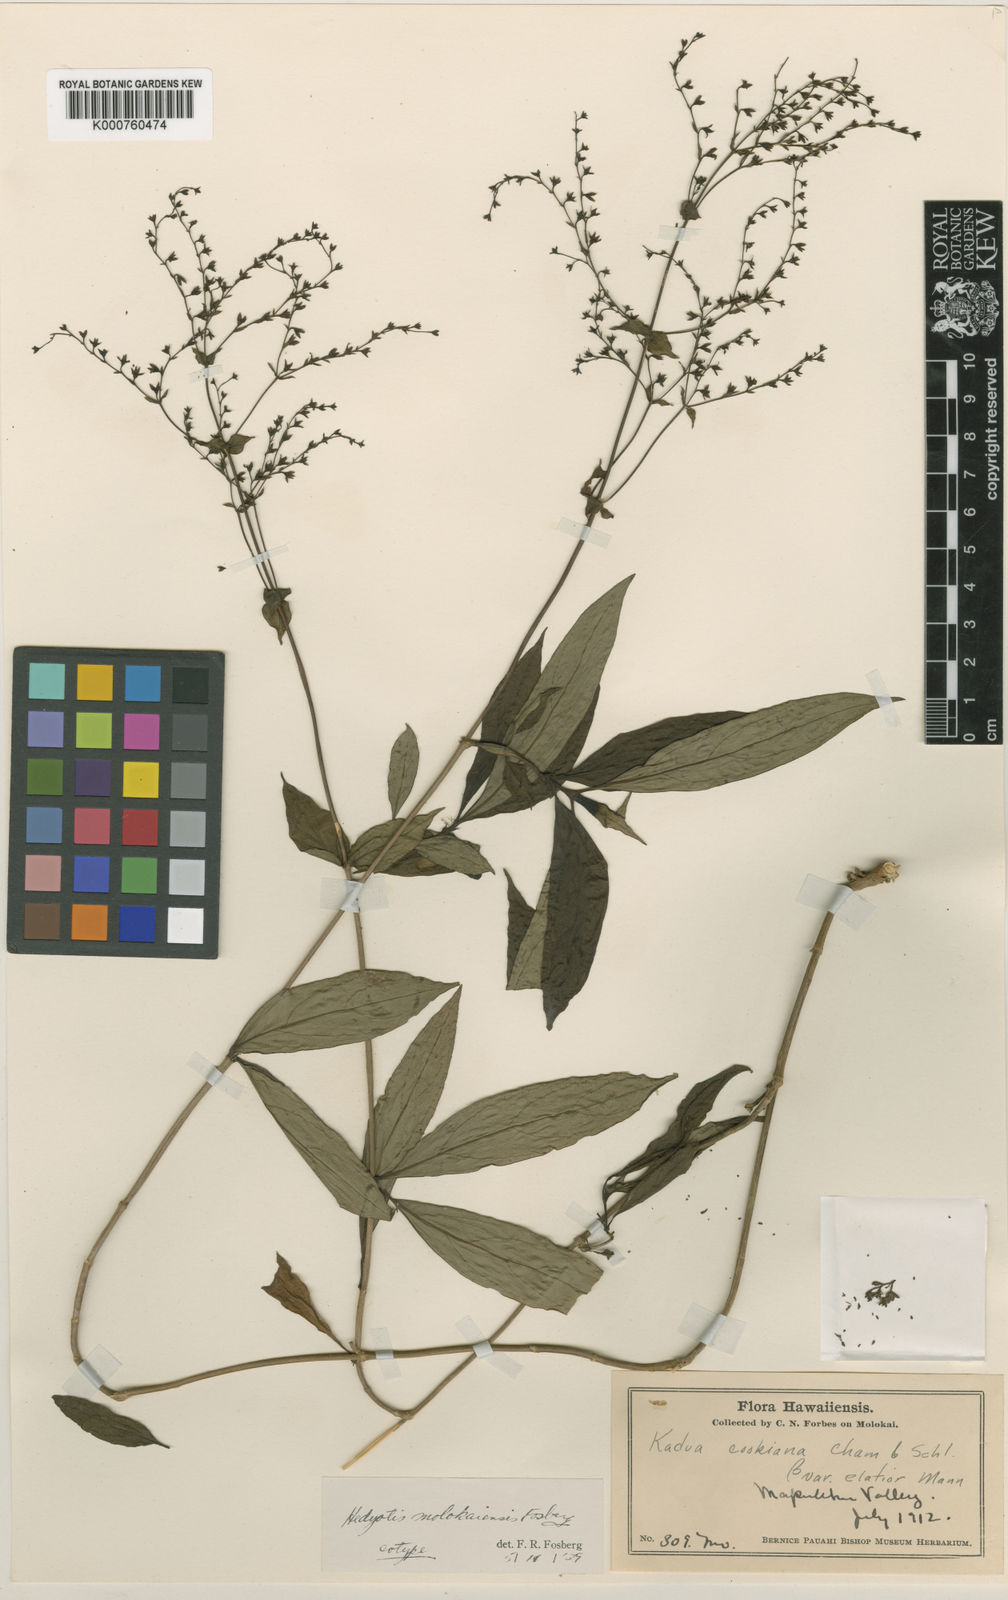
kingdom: Plantae
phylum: Tracheophyta
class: Magnoliopsida
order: Gentianales
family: Rubiaceae
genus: Kadua
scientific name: Kadua laxiflora
